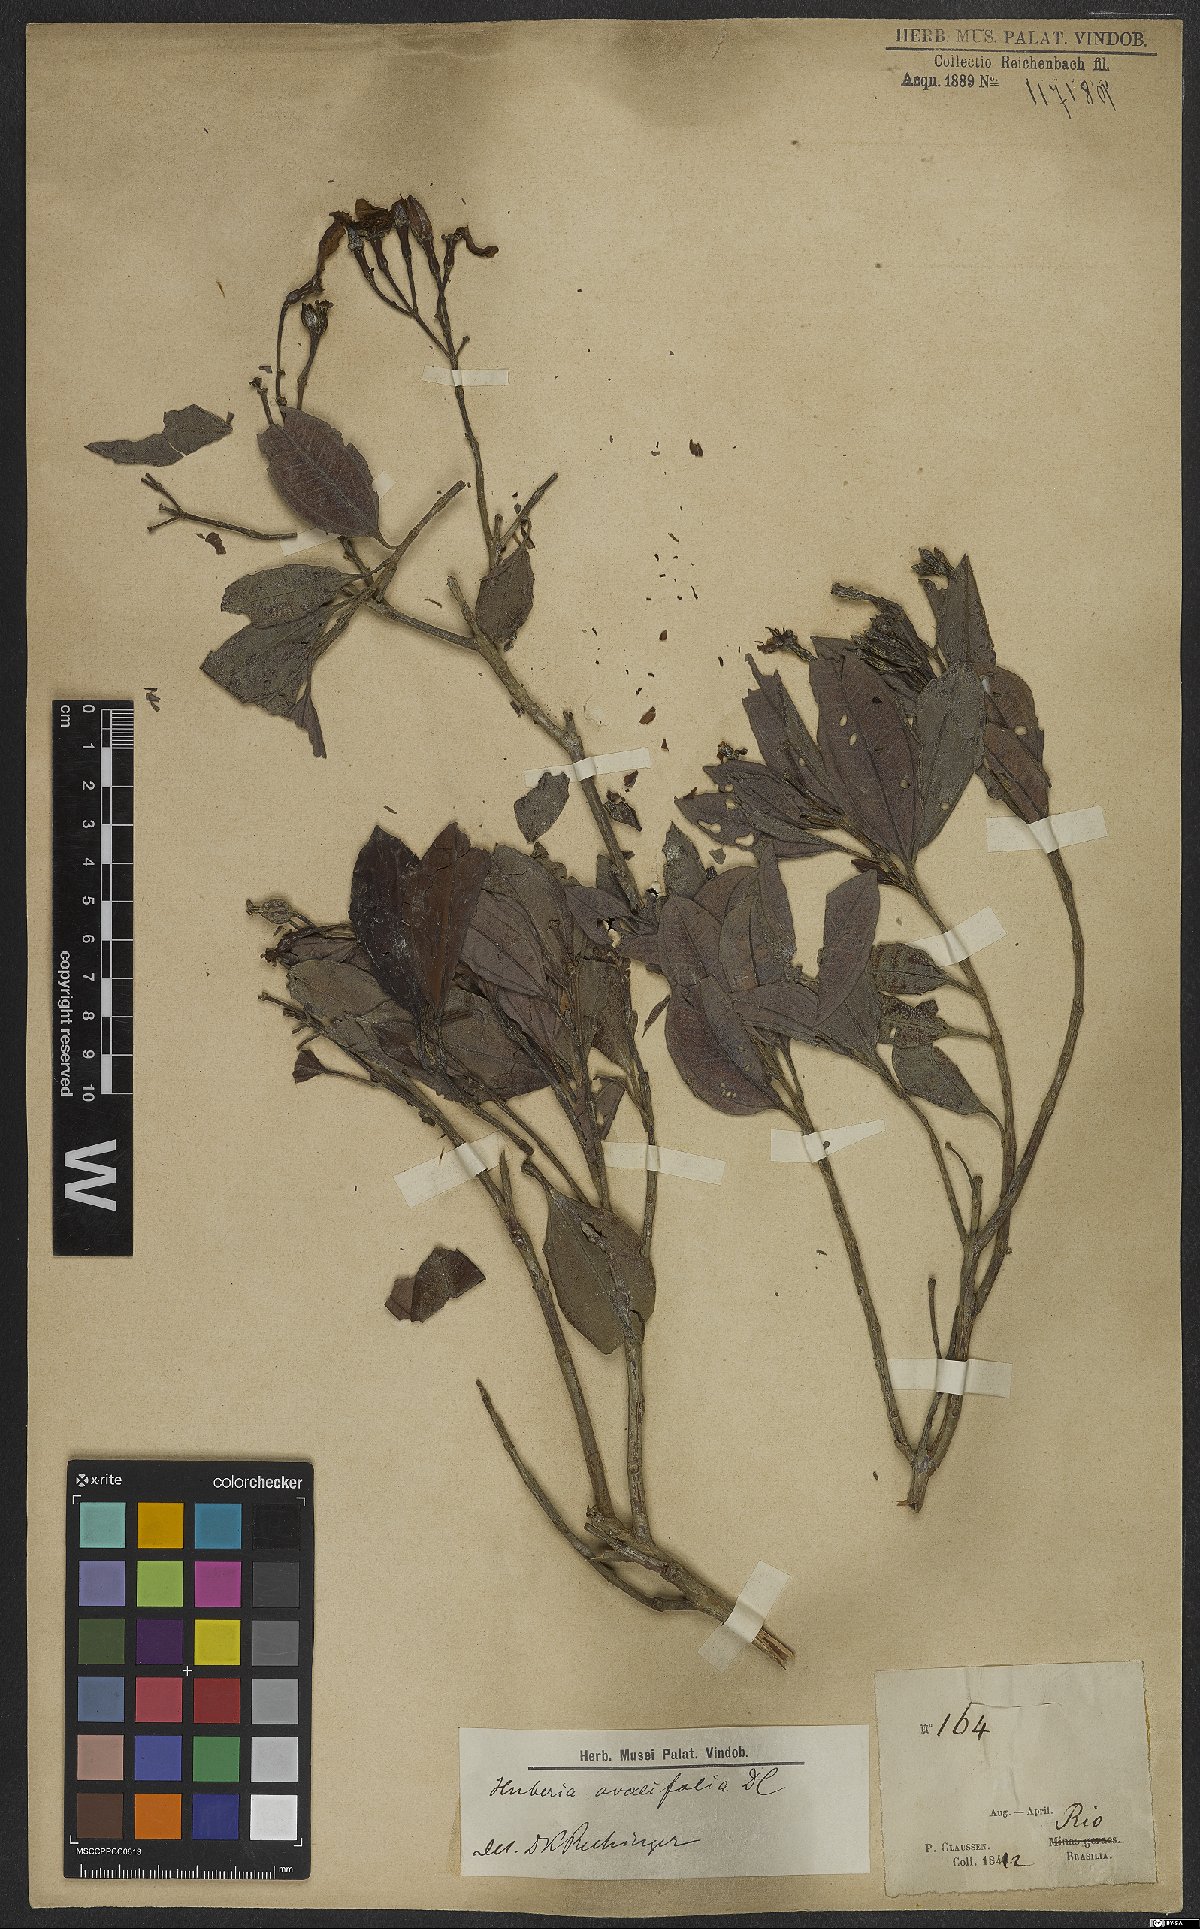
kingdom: Plantae
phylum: Tracheophyta
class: Magnoliopsida
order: Myrtales
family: Melastomataceae
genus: Huberia
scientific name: Huberia ovalifolia
